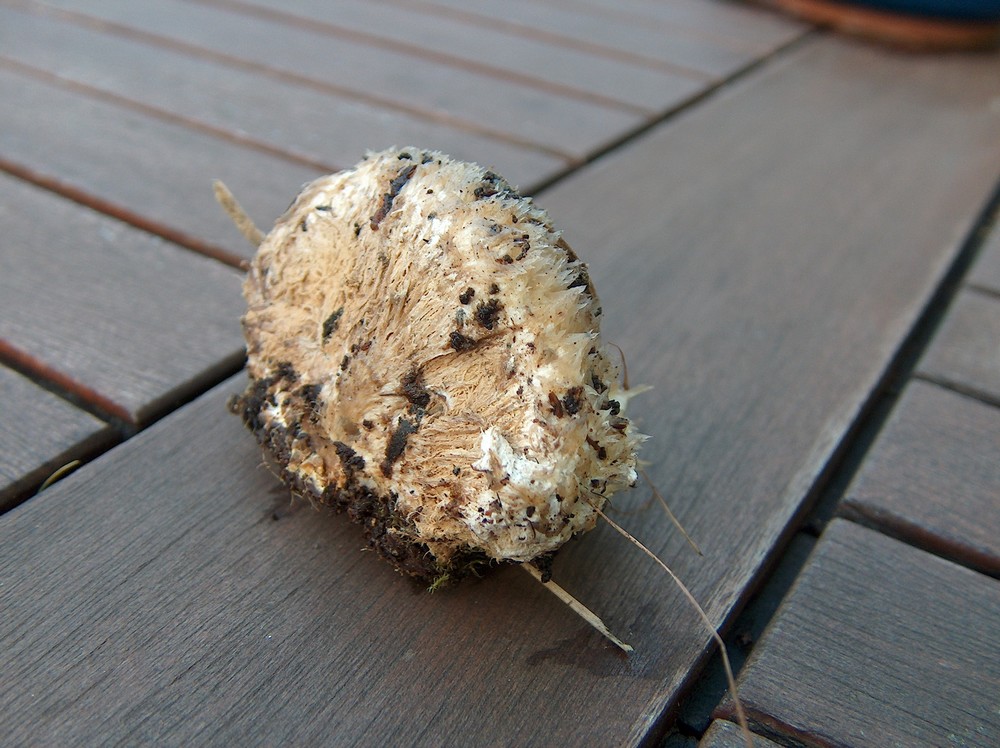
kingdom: Fungi
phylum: Basidiomycota
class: Agaricomycetes
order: Polyporales
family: Dacryobolaceae
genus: Postia
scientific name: Postia ptychogaster
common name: støvende kødporesvamp
